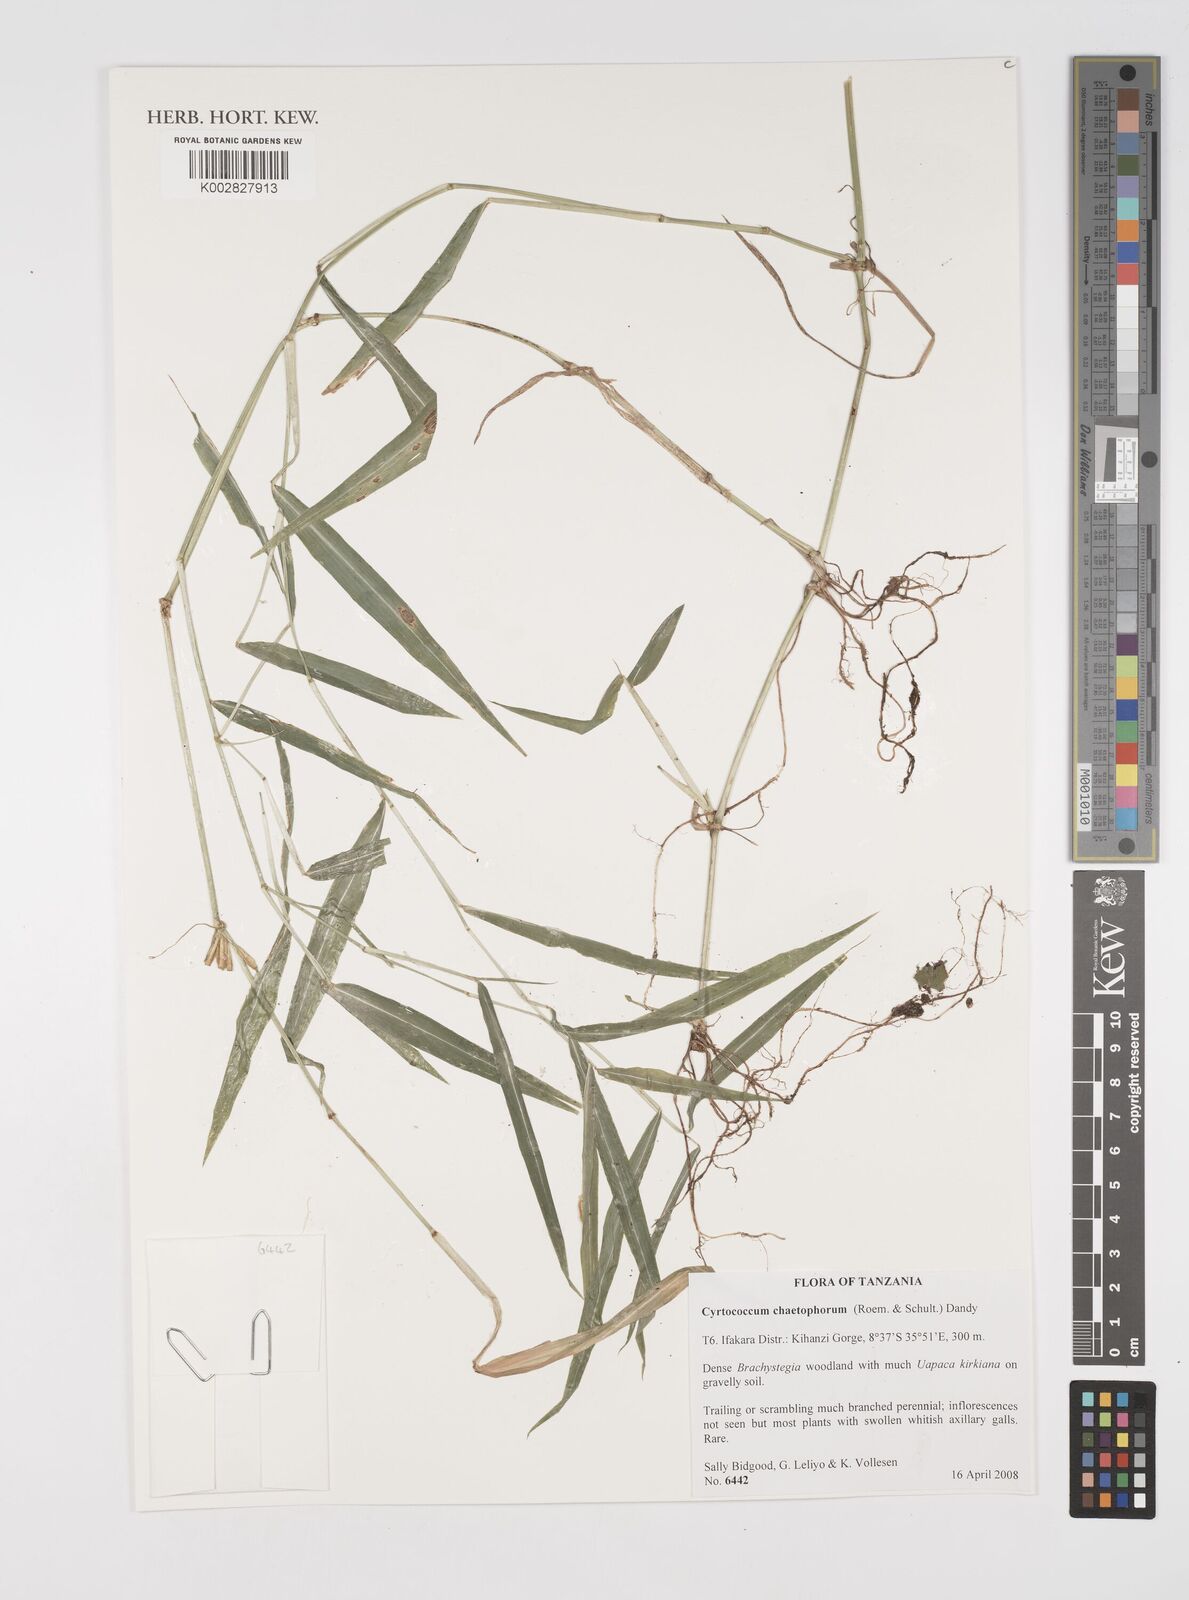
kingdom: Plantae
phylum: Tracheophyta
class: Liliopsida
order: Poales
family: Poaceae
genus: Cyrtococcum
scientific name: Cyrtococcum chaetophoron
